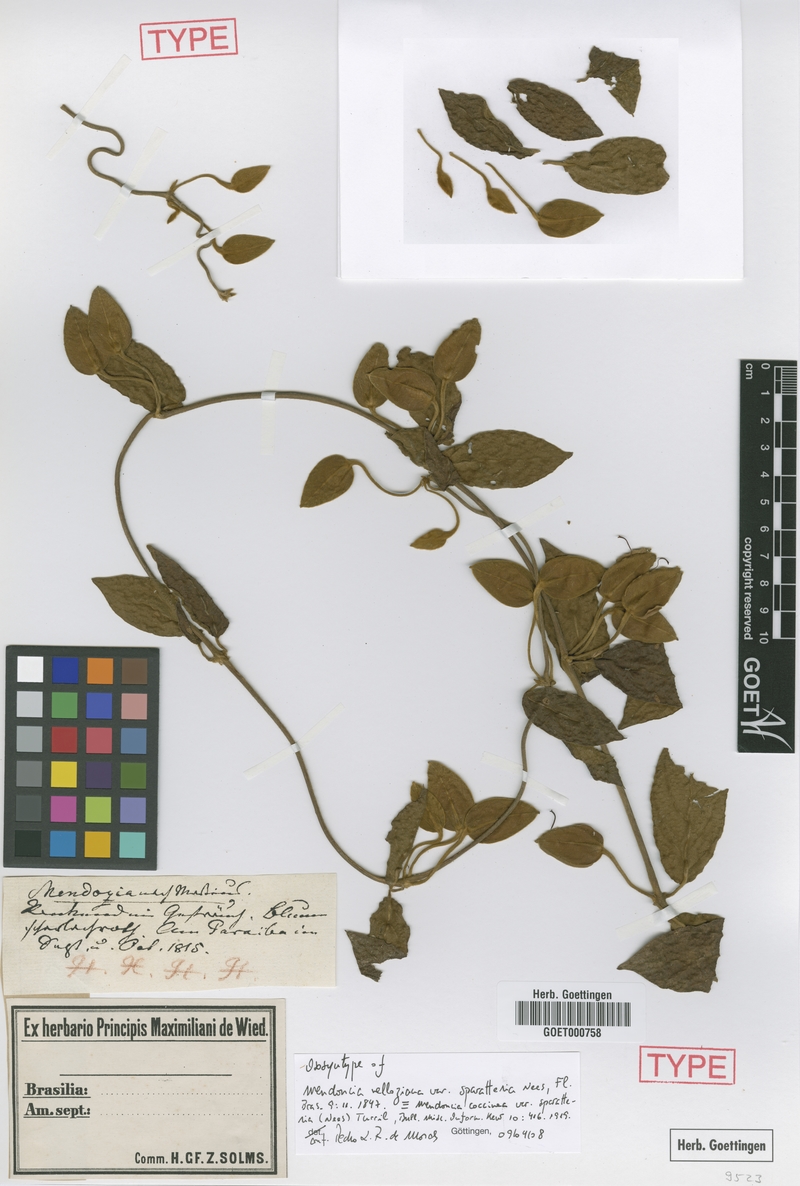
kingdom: Plantae
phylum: Tracheophyta
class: Magnoliopsida
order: Lamiales
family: Acanthaceae
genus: Mendoncia
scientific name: Mendoncia coccinea
